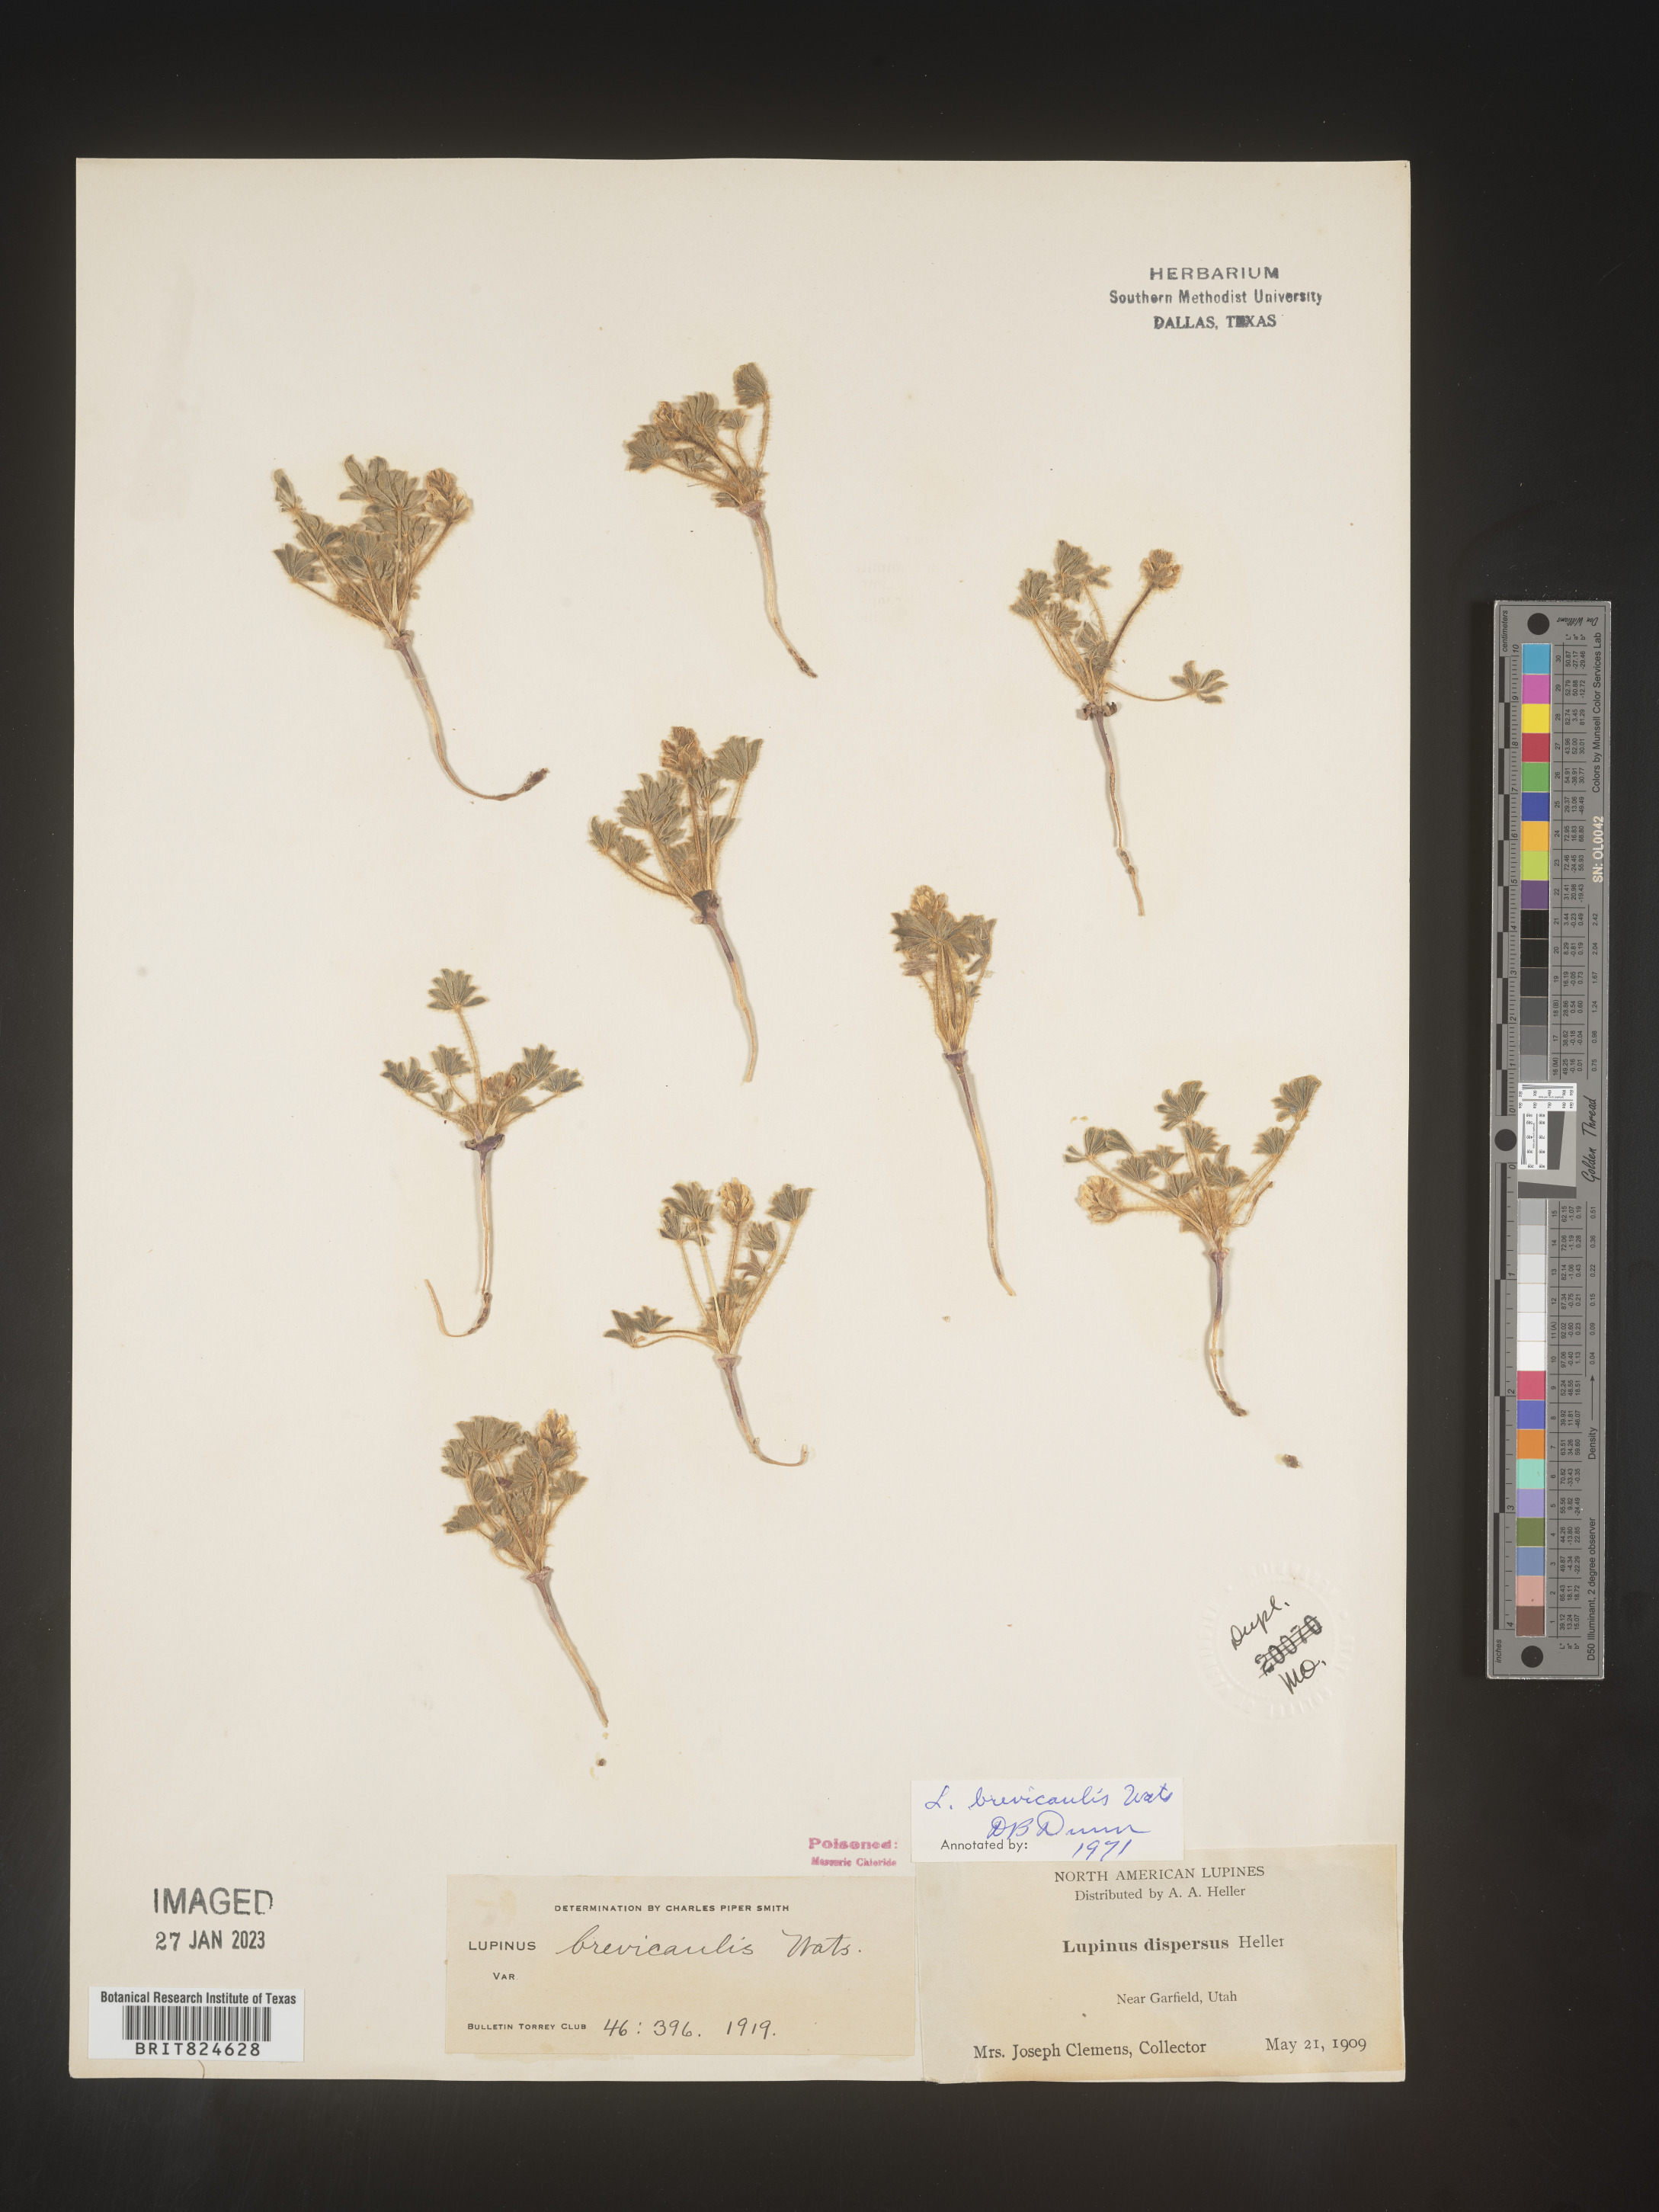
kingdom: Plantae
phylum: Tracheophyta
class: Magnoliopsida
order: Fabales
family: Fabaceae
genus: Lupinus
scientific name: Lupinus
